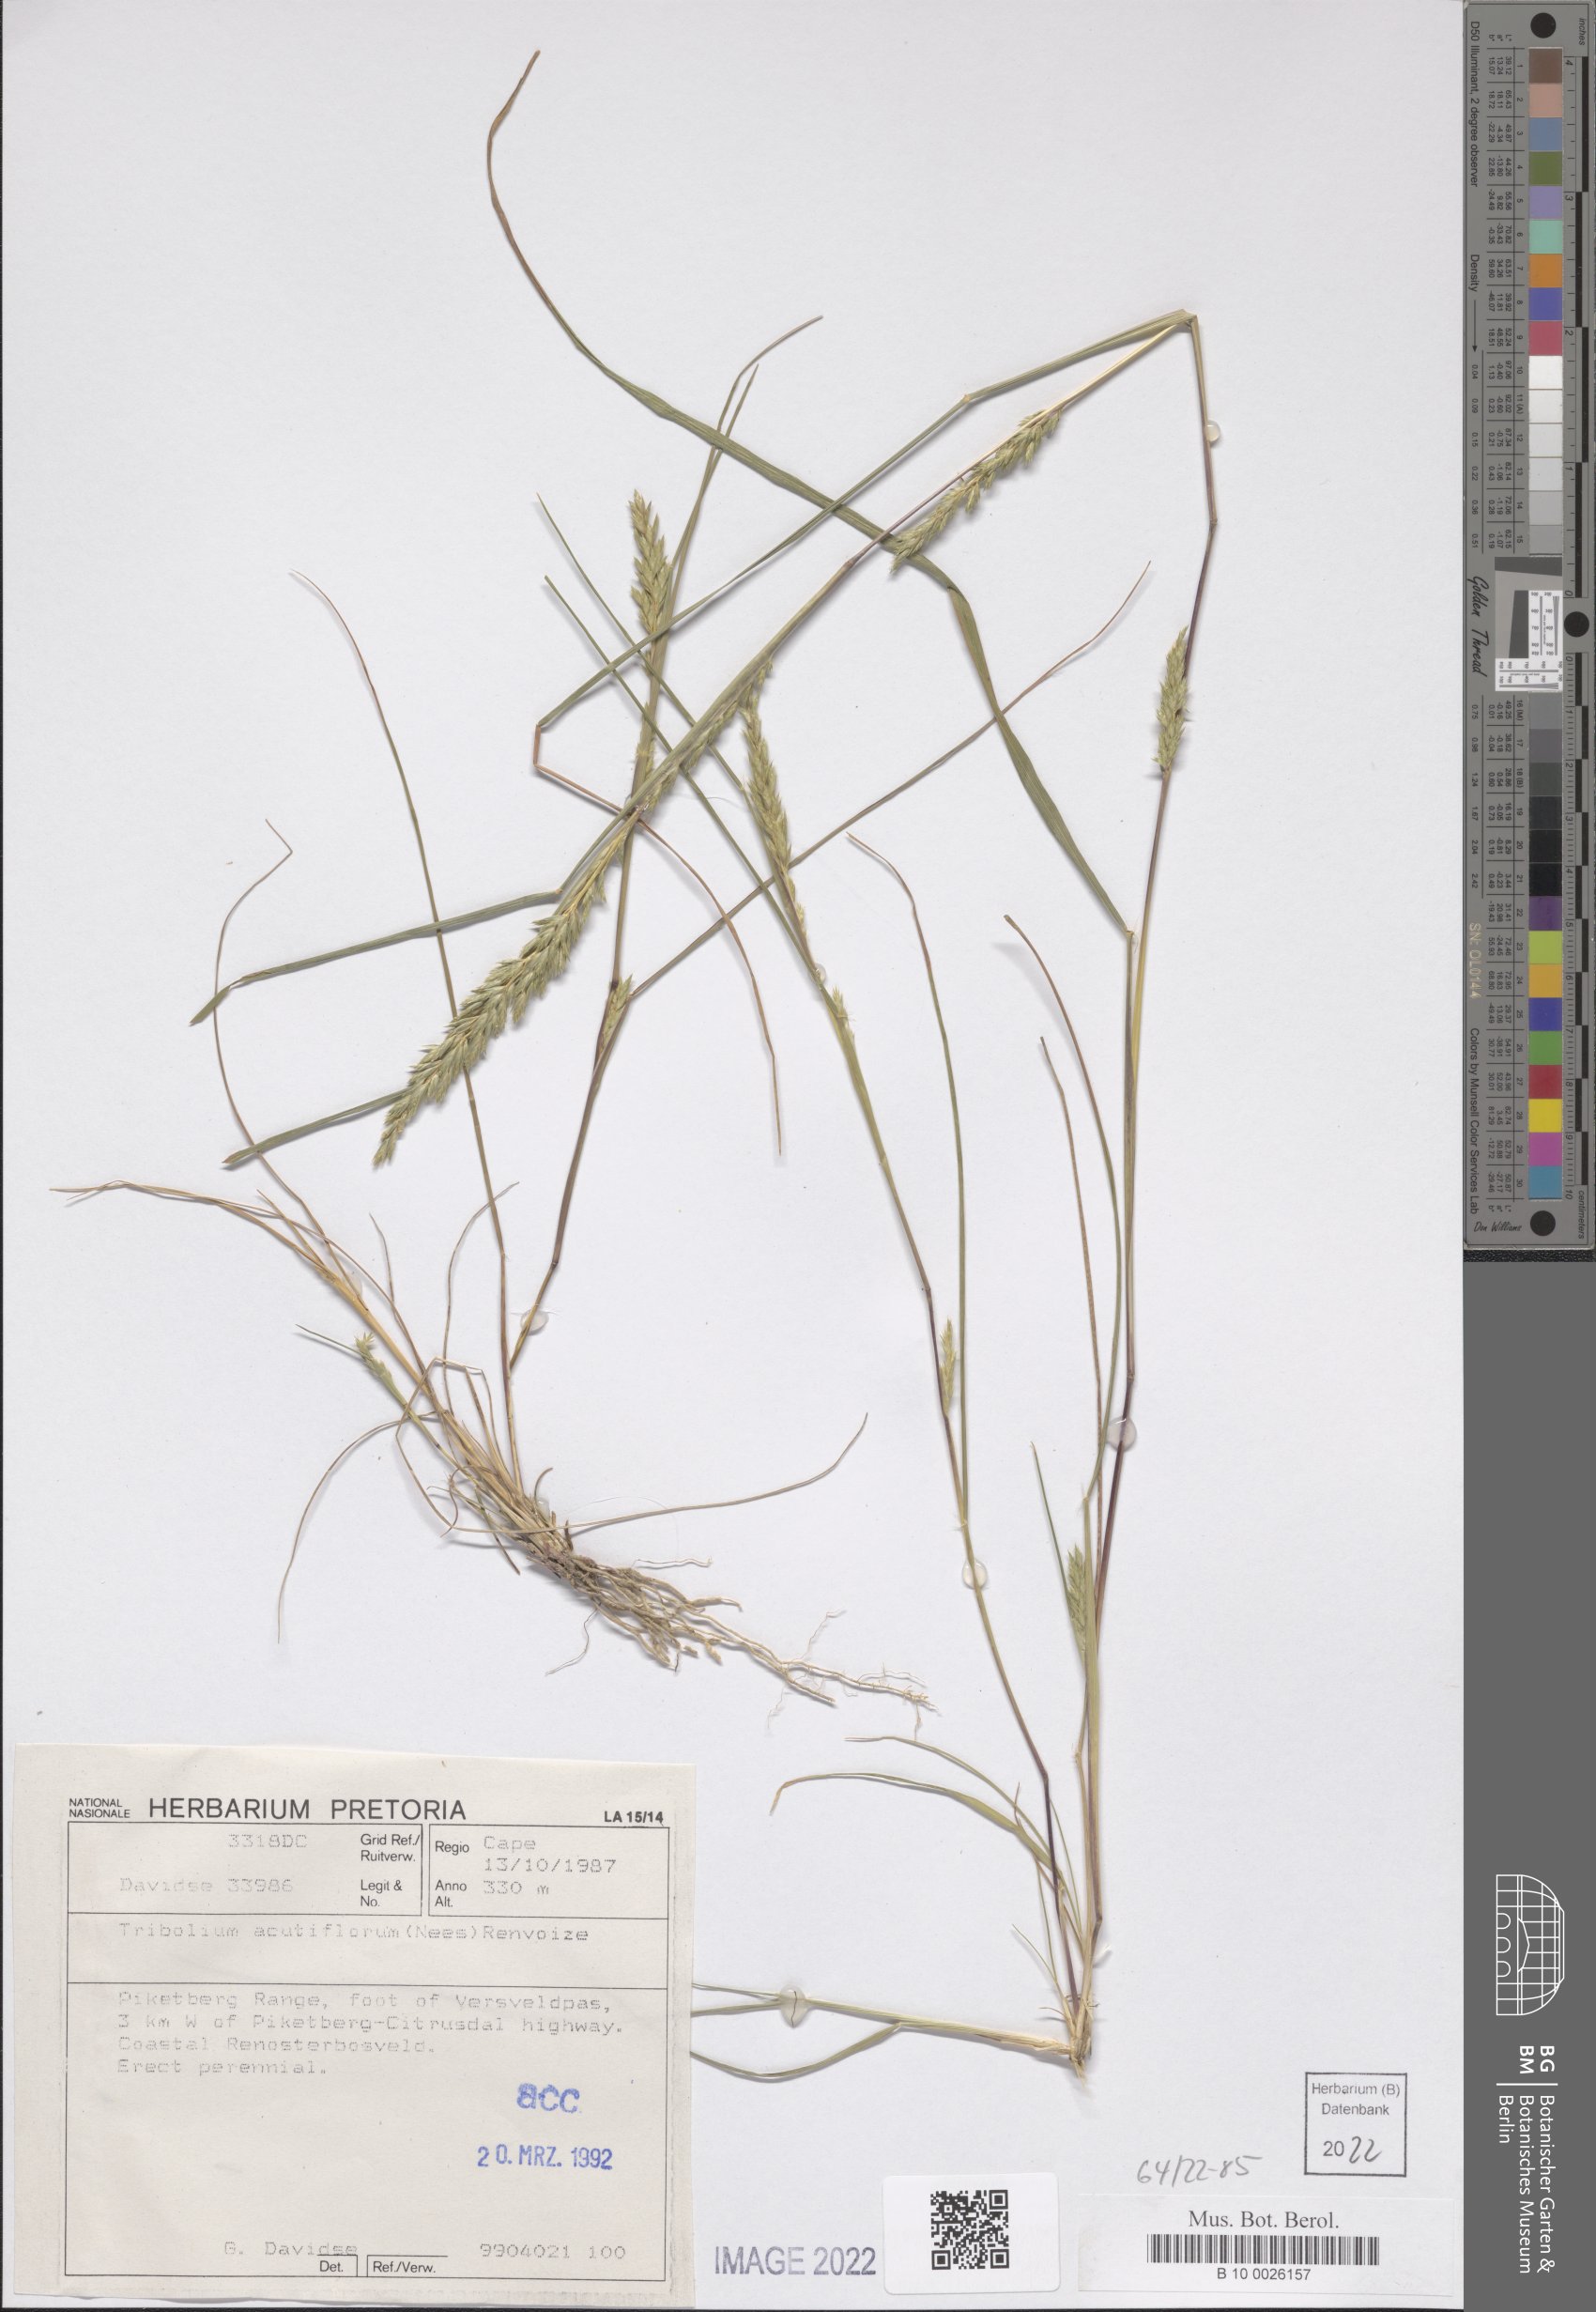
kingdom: Plantae
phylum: Tracheophyta
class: Liliopsida
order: Poales
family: Poaceae
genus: Tribolium
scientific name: Tribolium acutiflorum
